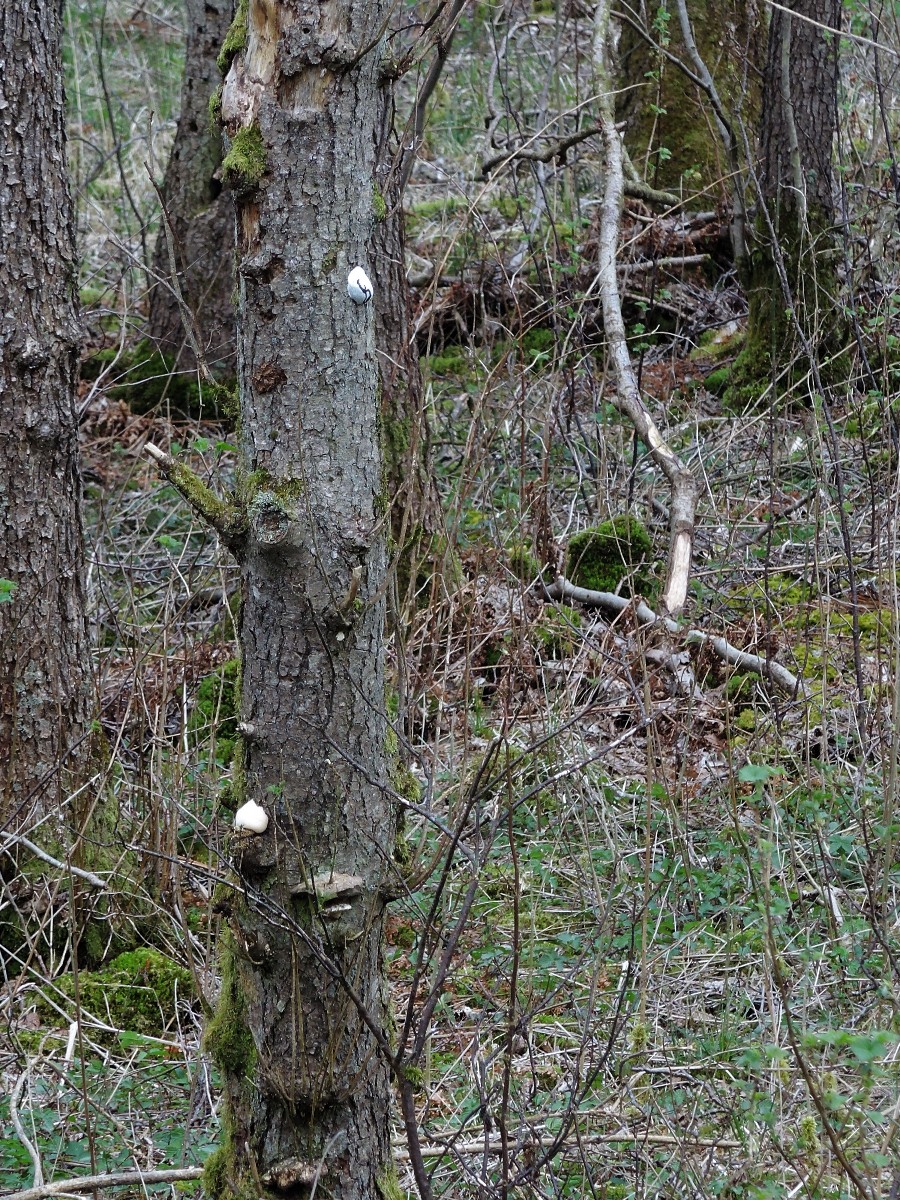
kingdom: Protozoa
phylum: Mycetozoa
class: Myxomycetes
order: Cribrariales
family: Tubiferaceae
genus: Reticularia
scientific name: Reticularia lycoperdon
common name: skinnende støvpude
